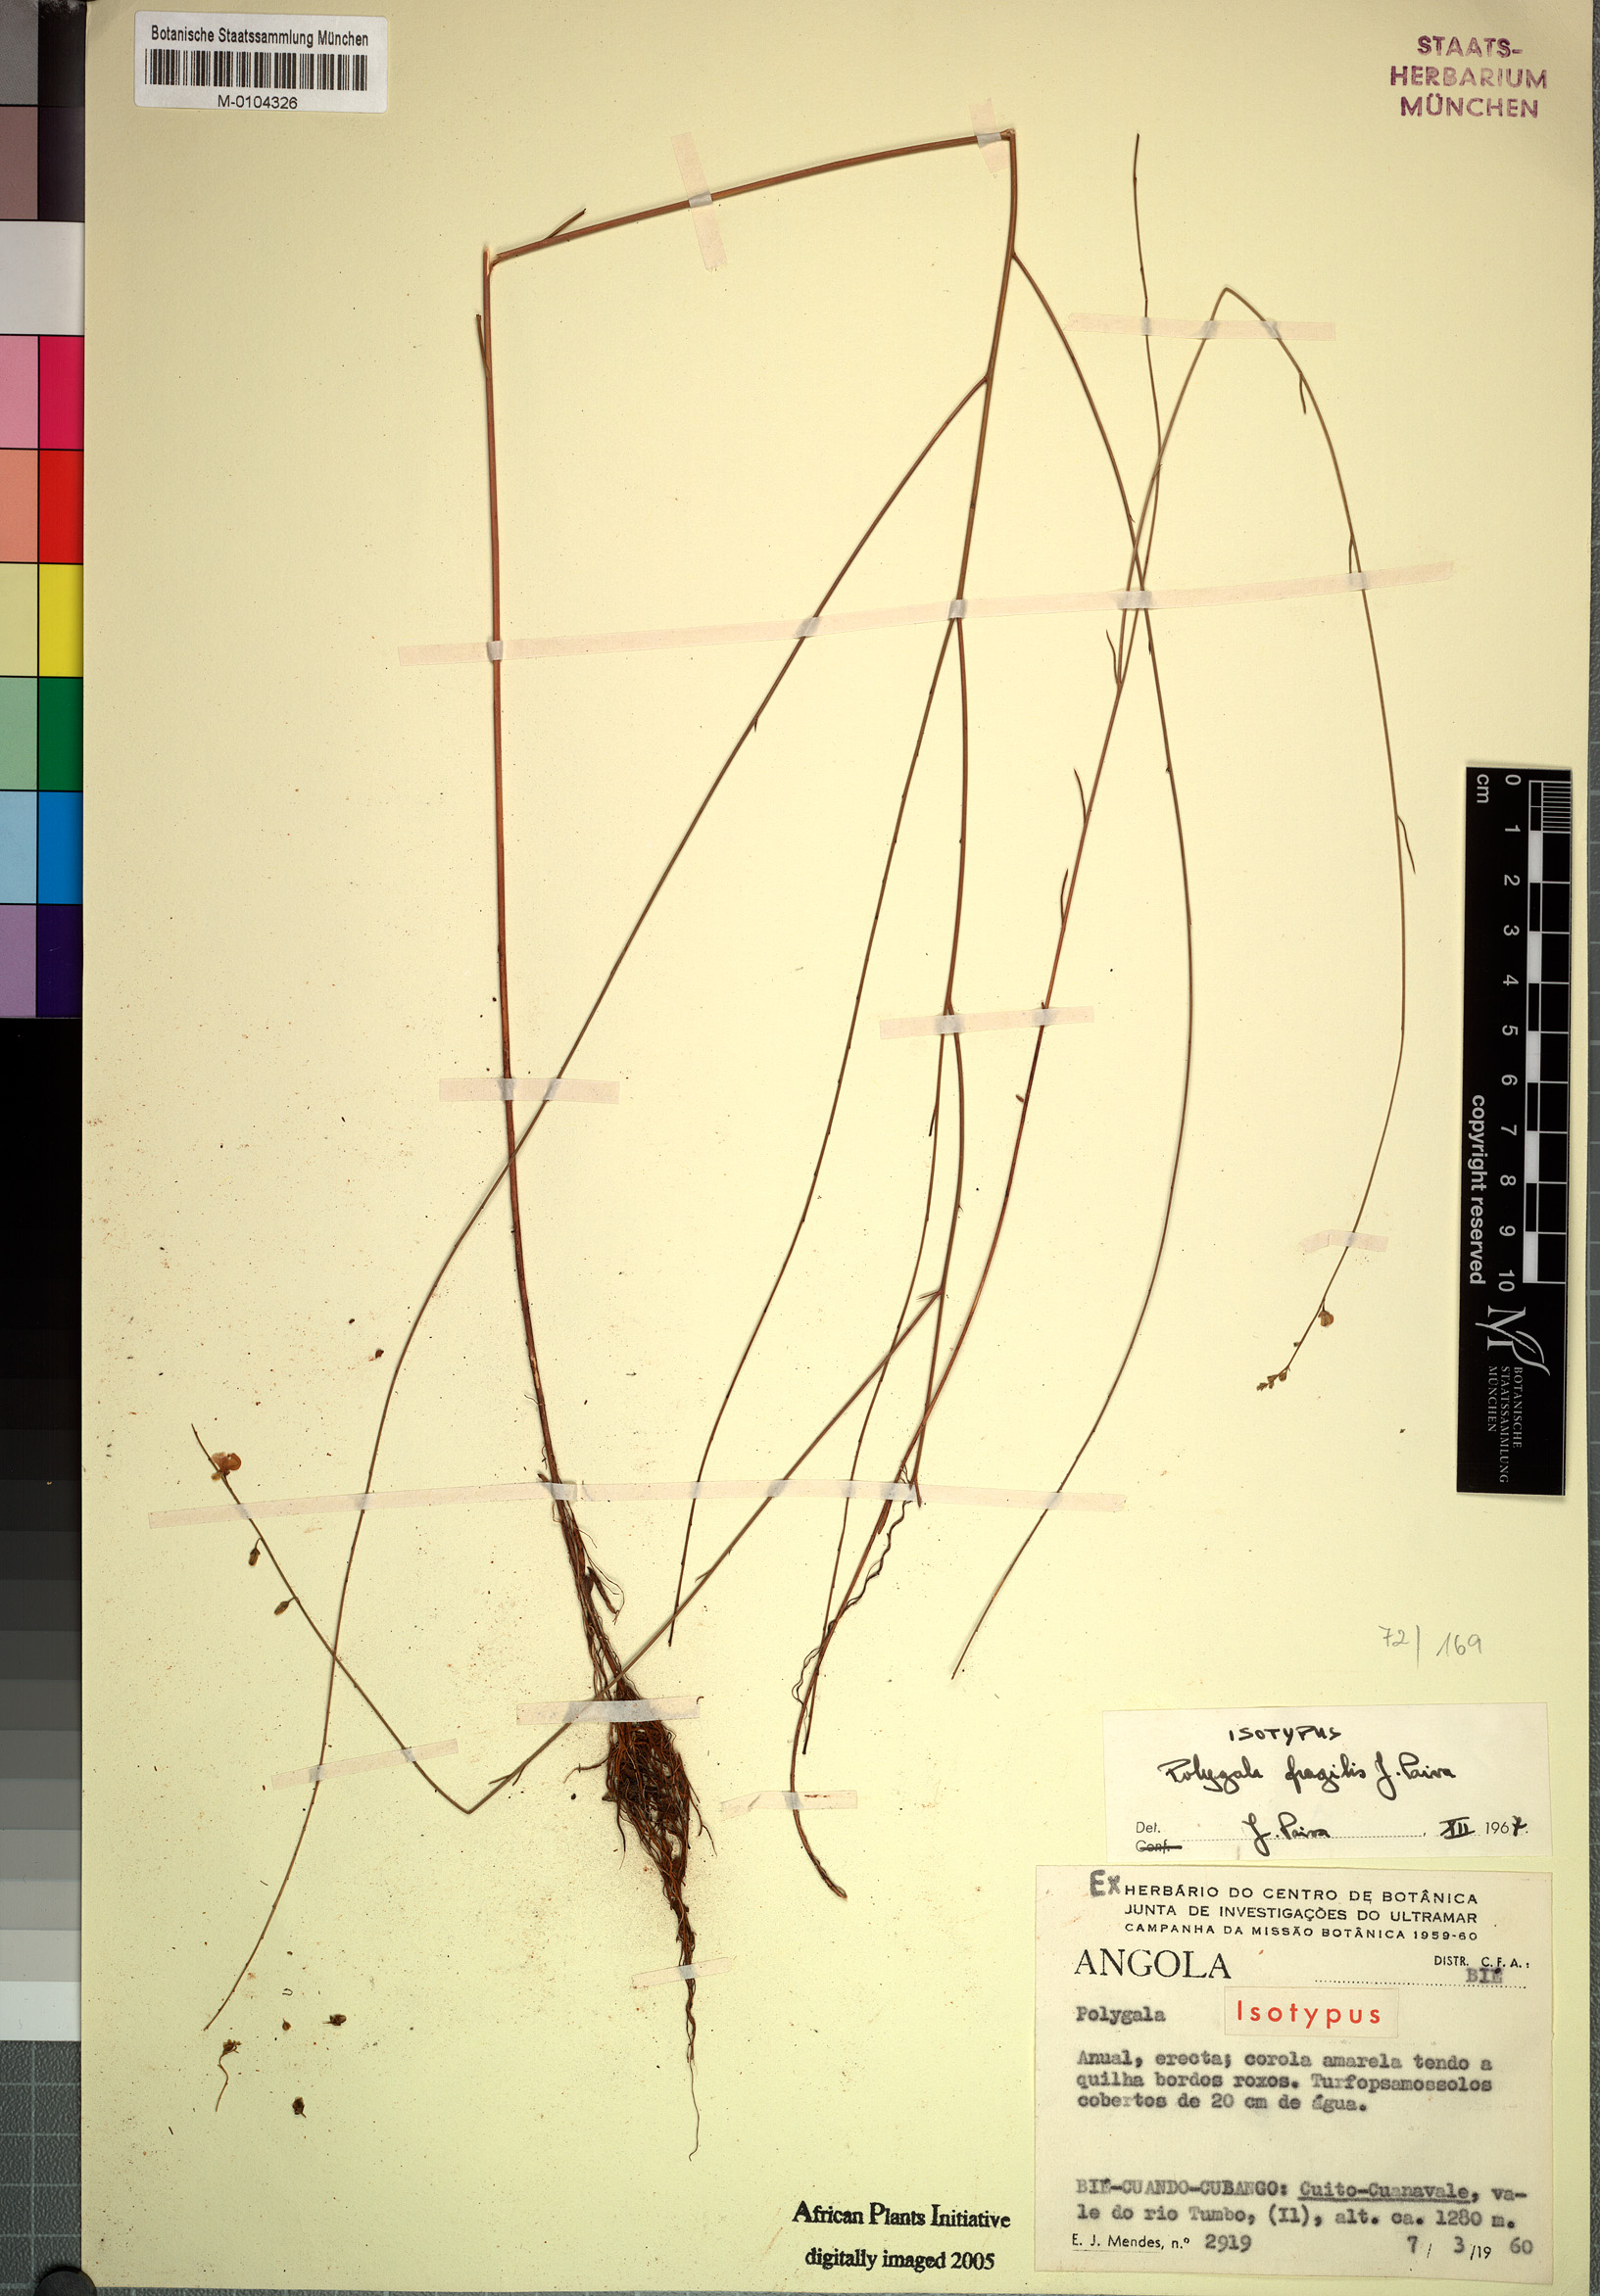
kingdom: Plantae
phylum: Tracheophyta
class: Magnoliopsida
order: Fabales
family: Polygalaceae
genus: Polygala
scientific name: Polygala fragilis
